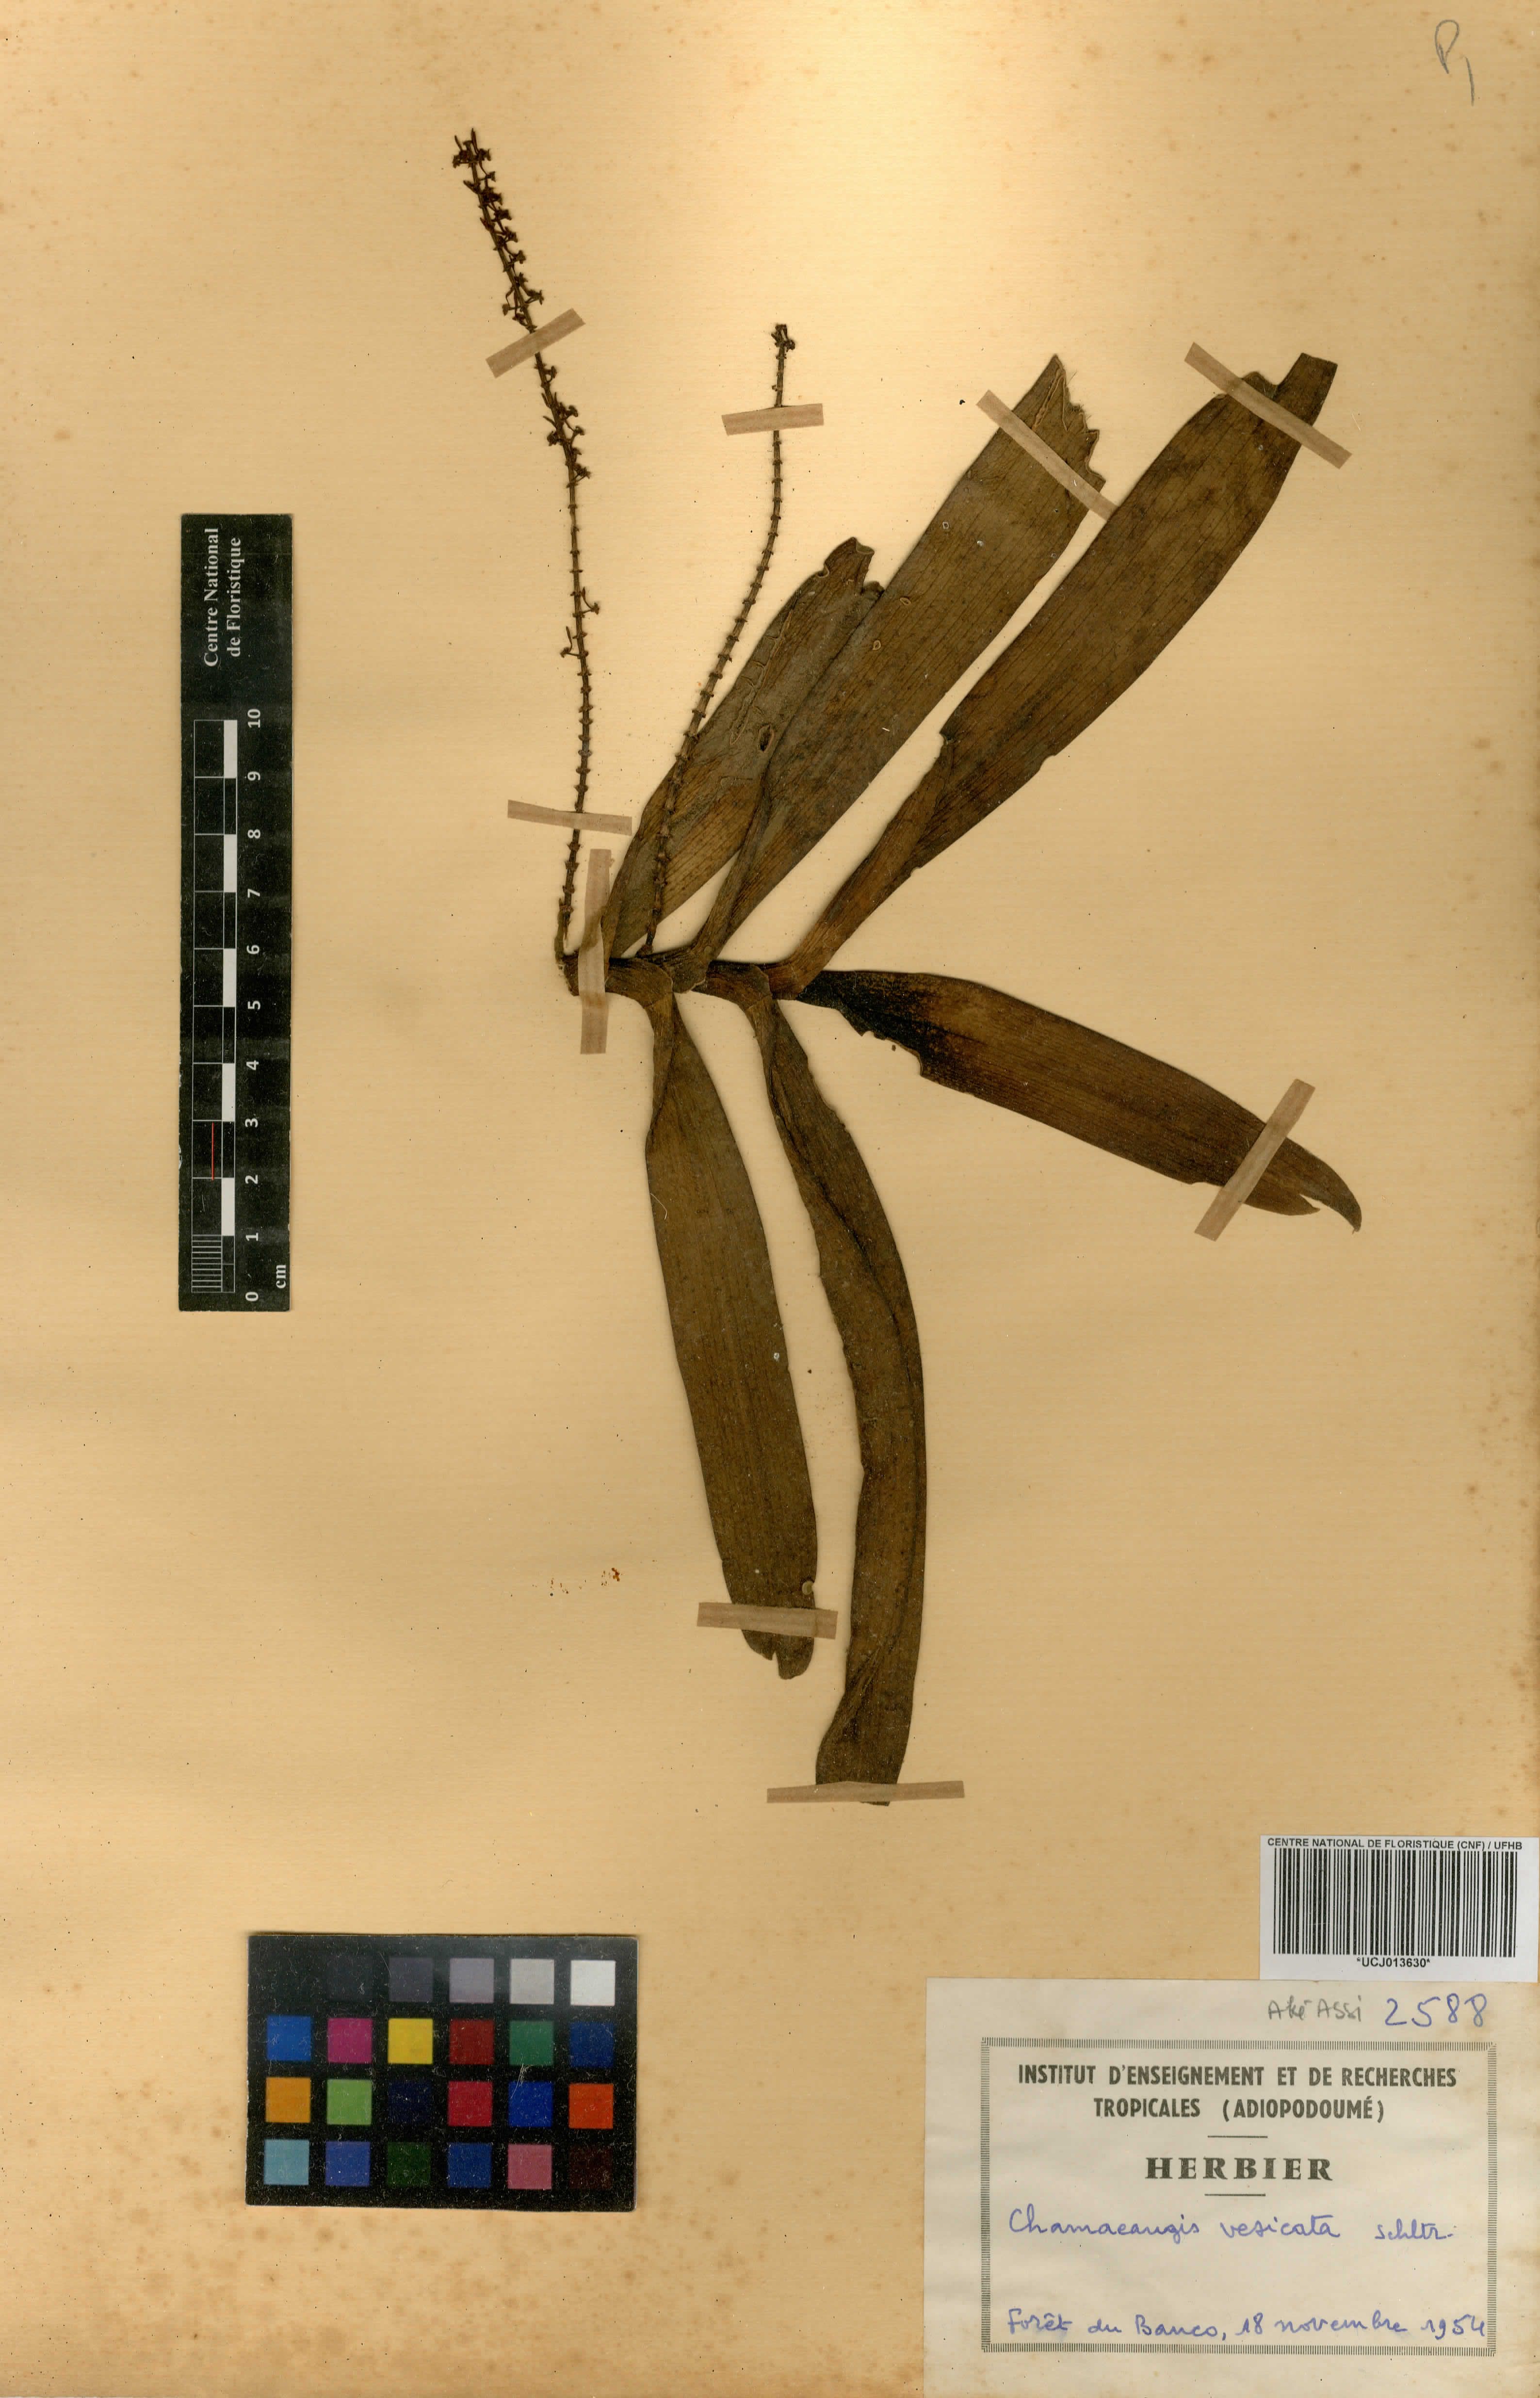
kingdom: Plantae
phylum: Tracheophyta
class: Liliopsida
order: Asparagales
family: Orchidaceae
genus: Diaphananthe
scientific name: Diaphananthe vesicata
